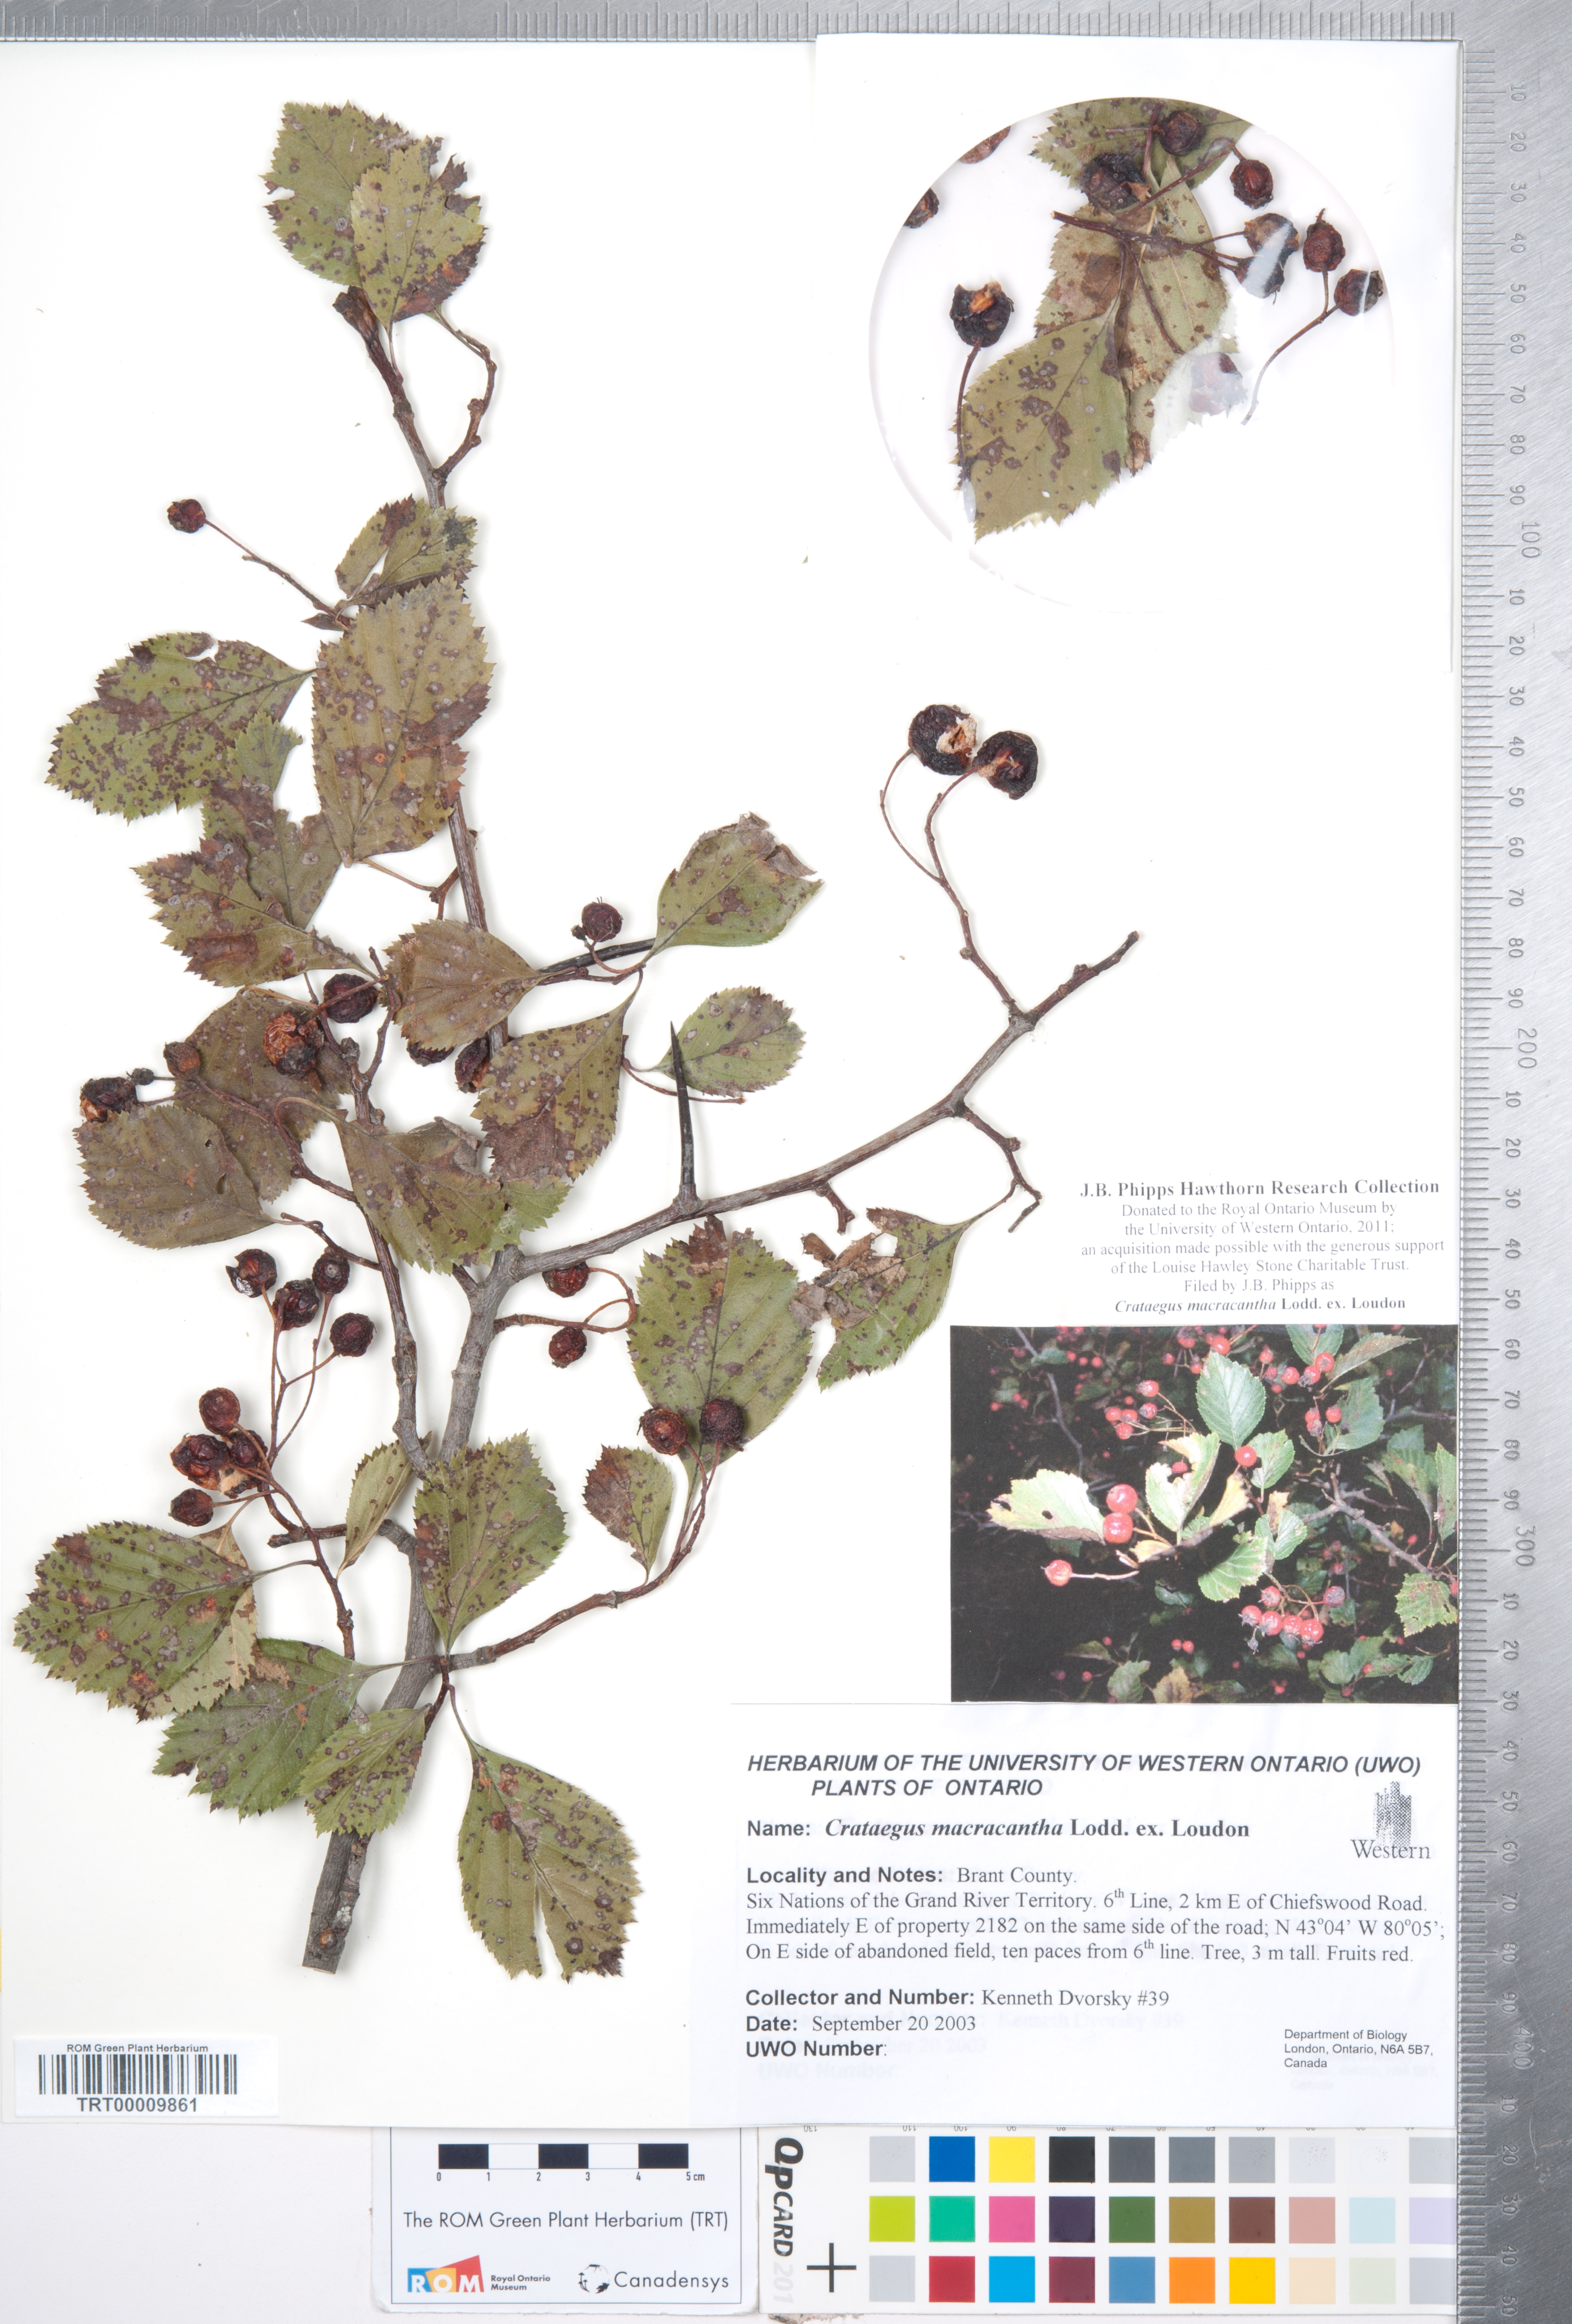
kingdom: Plantae
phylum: Tracheophyta
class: Magnoliopsida
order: Rosales
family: Rosaceae
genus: Crataegus
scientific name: Crataegus macracantha
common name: Large-thorn hawthorn
